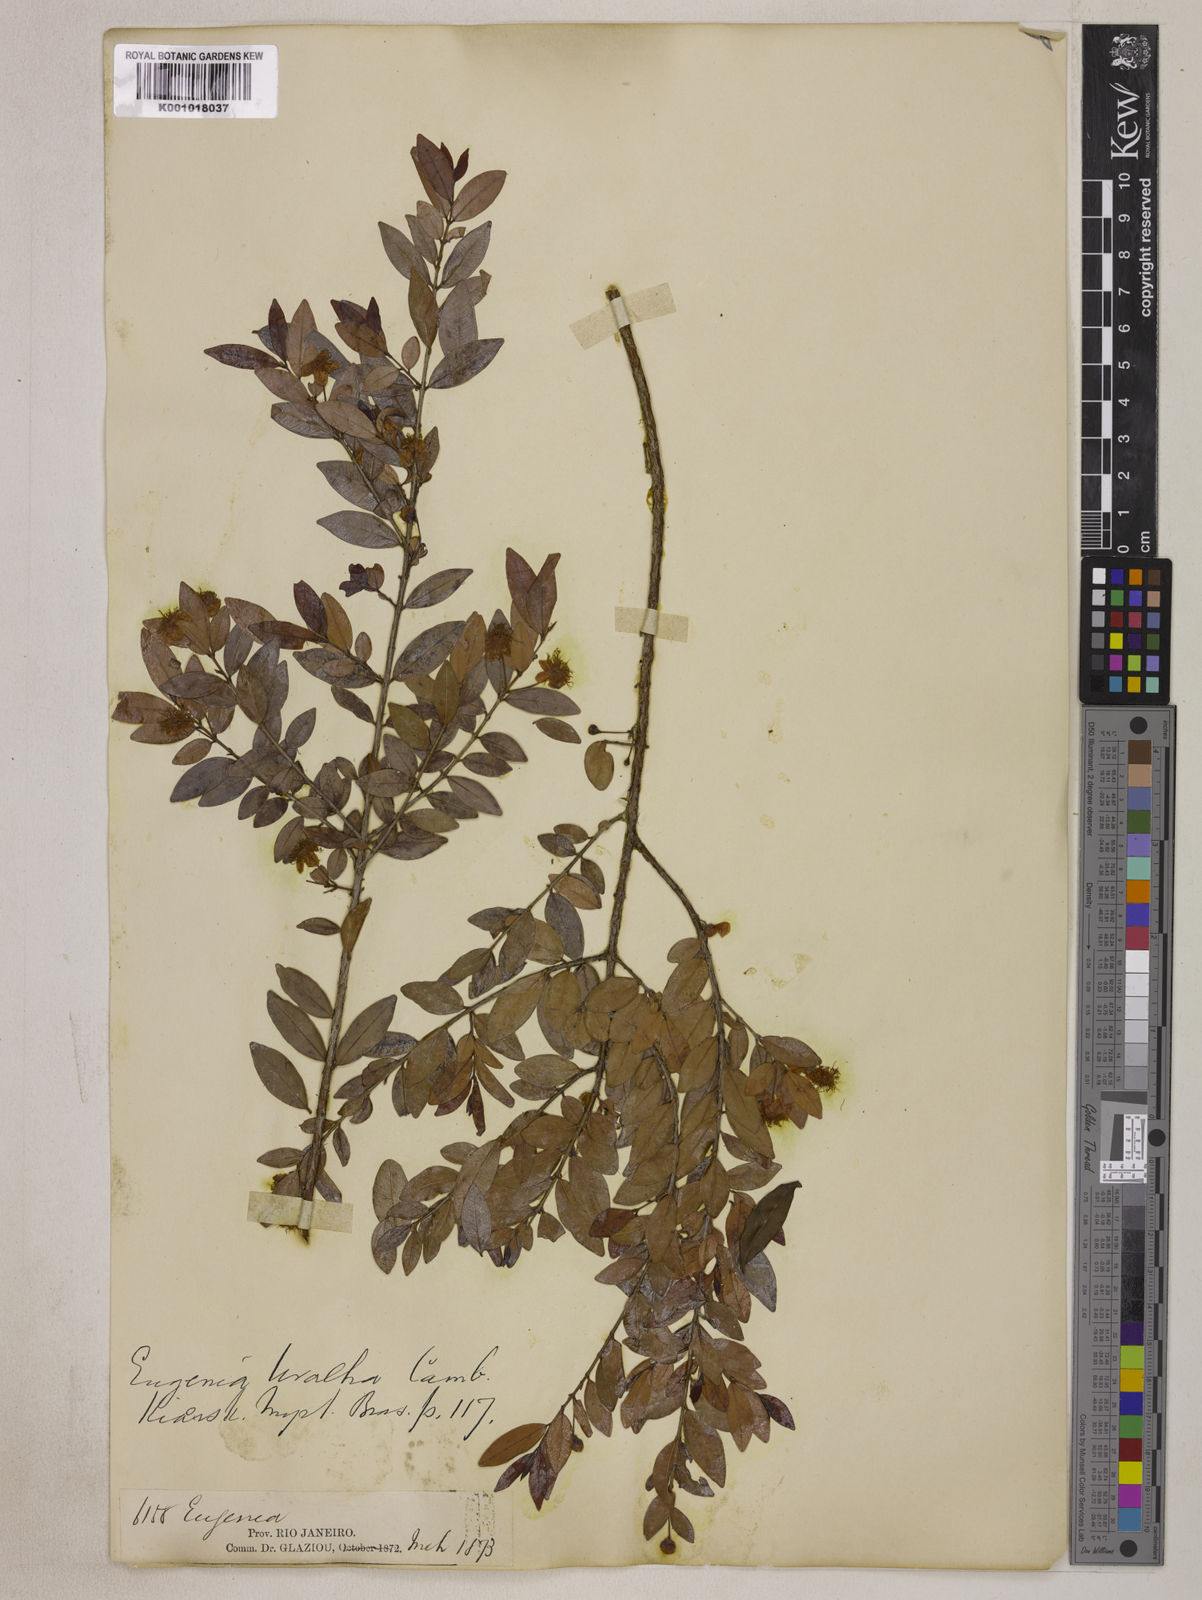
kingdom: Plantae
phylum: Tracheophyta
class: Magnoliopsida
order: Myrtales
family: Myrtaceae
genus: Eugenia
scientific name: Eugenia pyriformis
